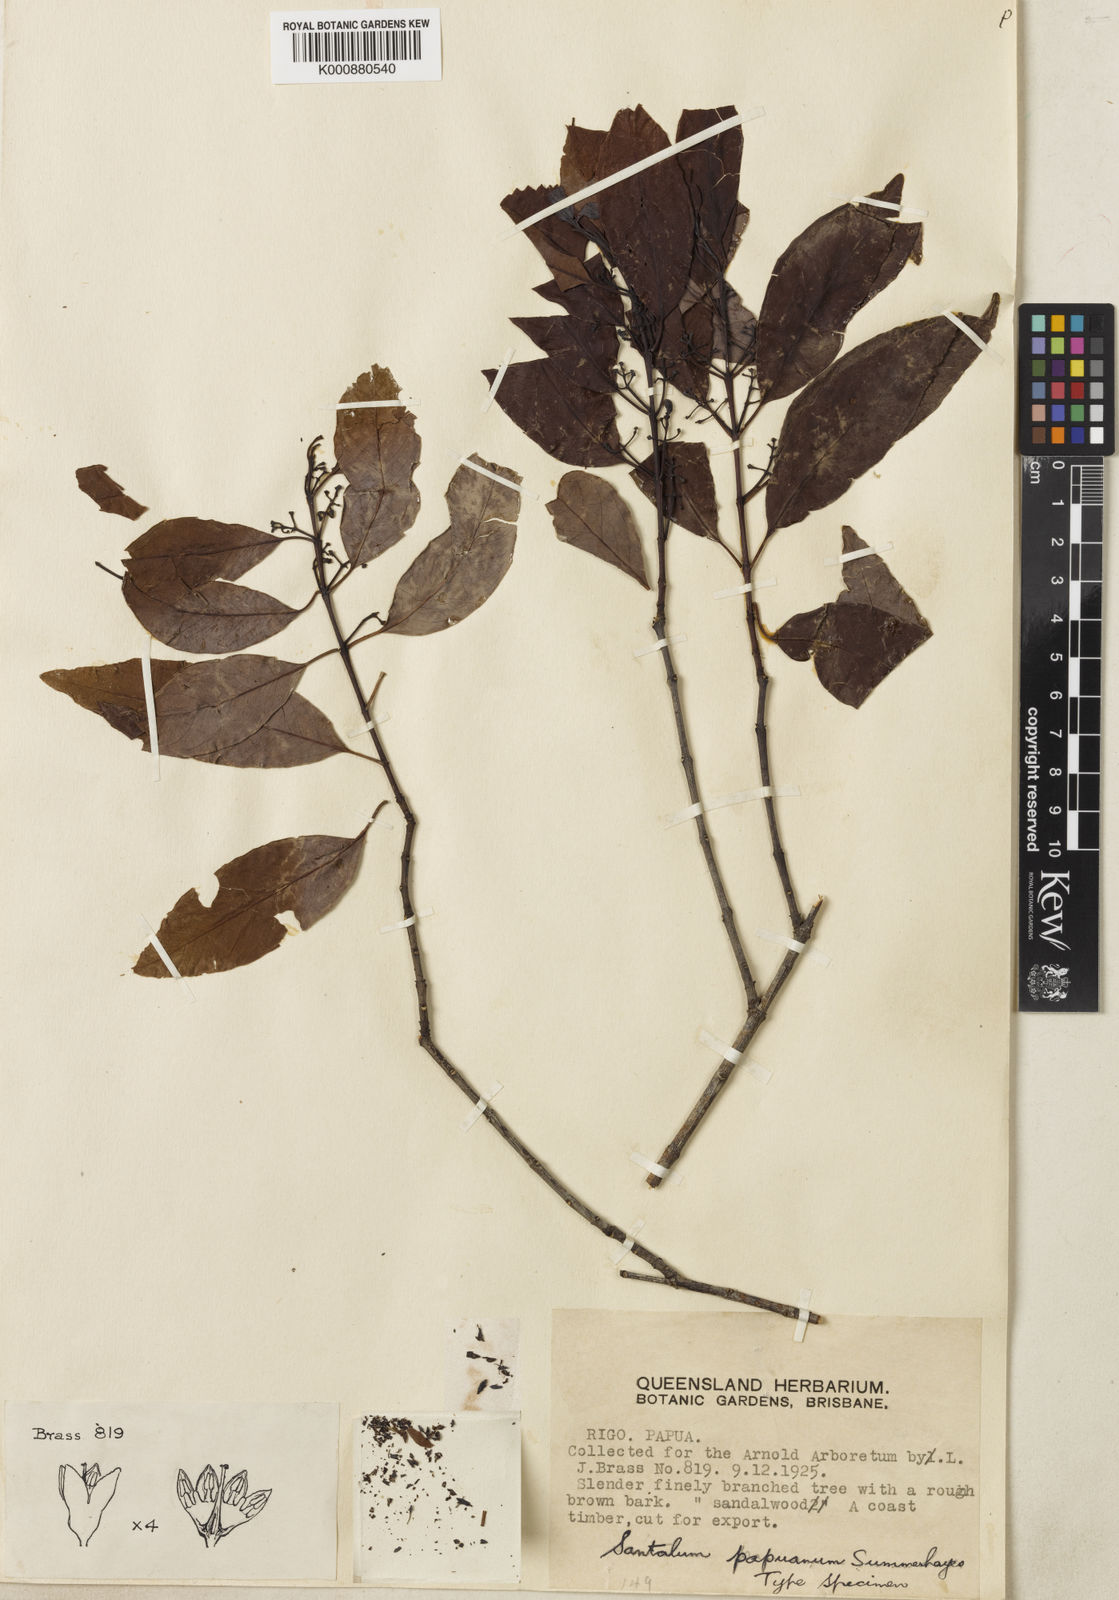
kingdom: Plantae
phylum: Tracheophyta
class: Magnoliopsida
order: Santalales
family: Santalaceae
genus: Santalum
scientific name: Santalum papuanum
